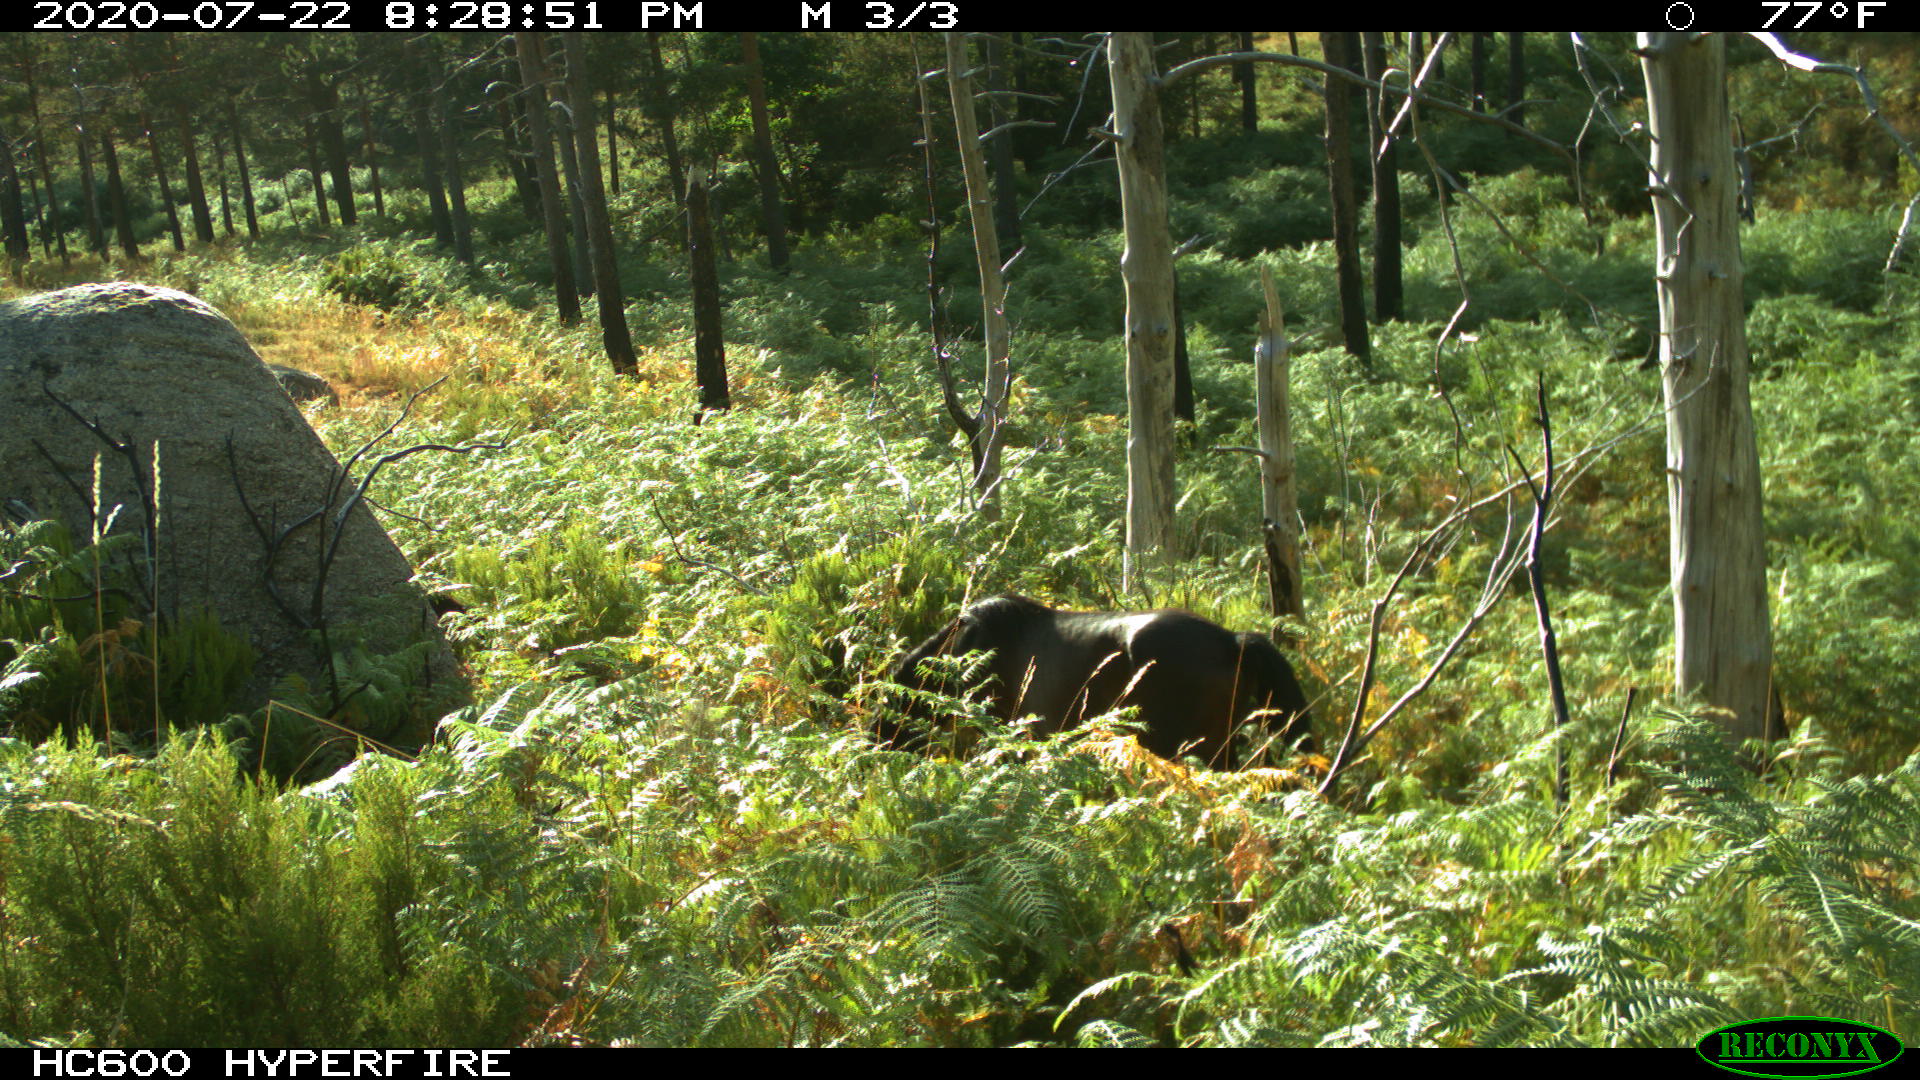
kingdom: Animalia
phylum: Chordata
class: Mammalia
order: Perissodactyla
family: Equidae
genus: Equus
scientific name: Equus caballus
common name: Horse
